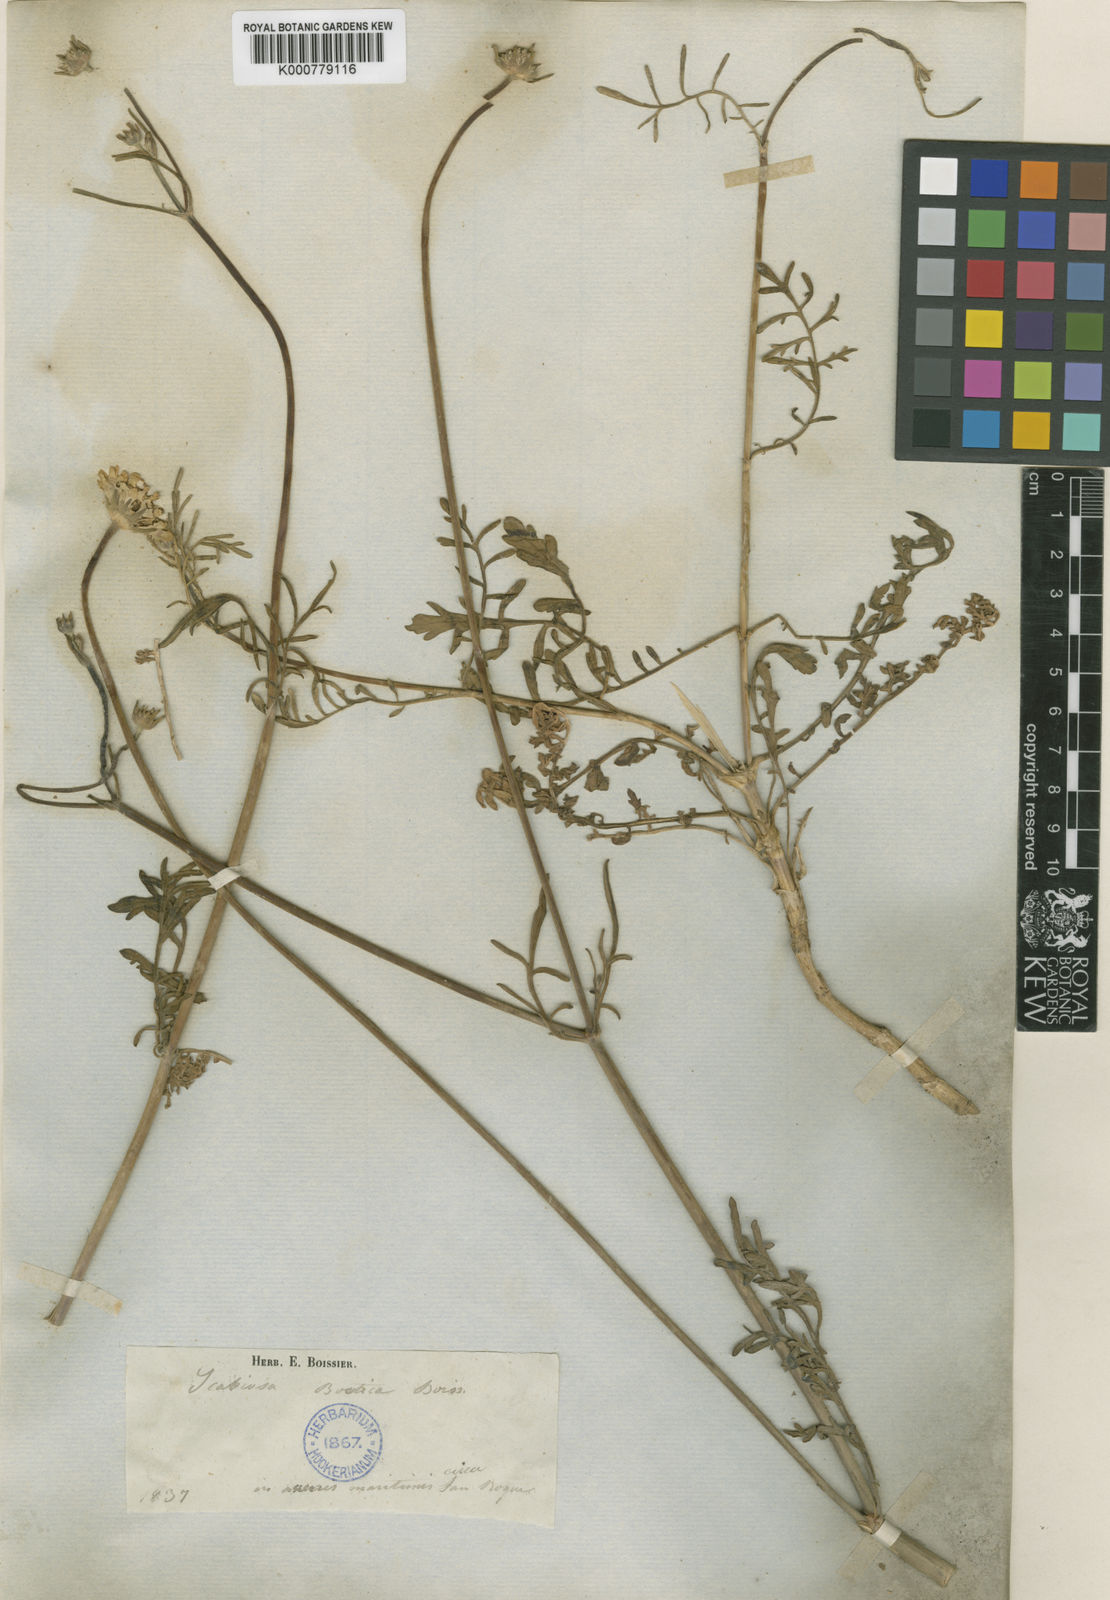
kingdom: Plantae
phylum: Tracheophyta
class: Magnoliopsida
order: Dipsacales
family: Caprifoliaceae
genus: Pycnocomon
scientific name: Pycnocomon rutifolium
